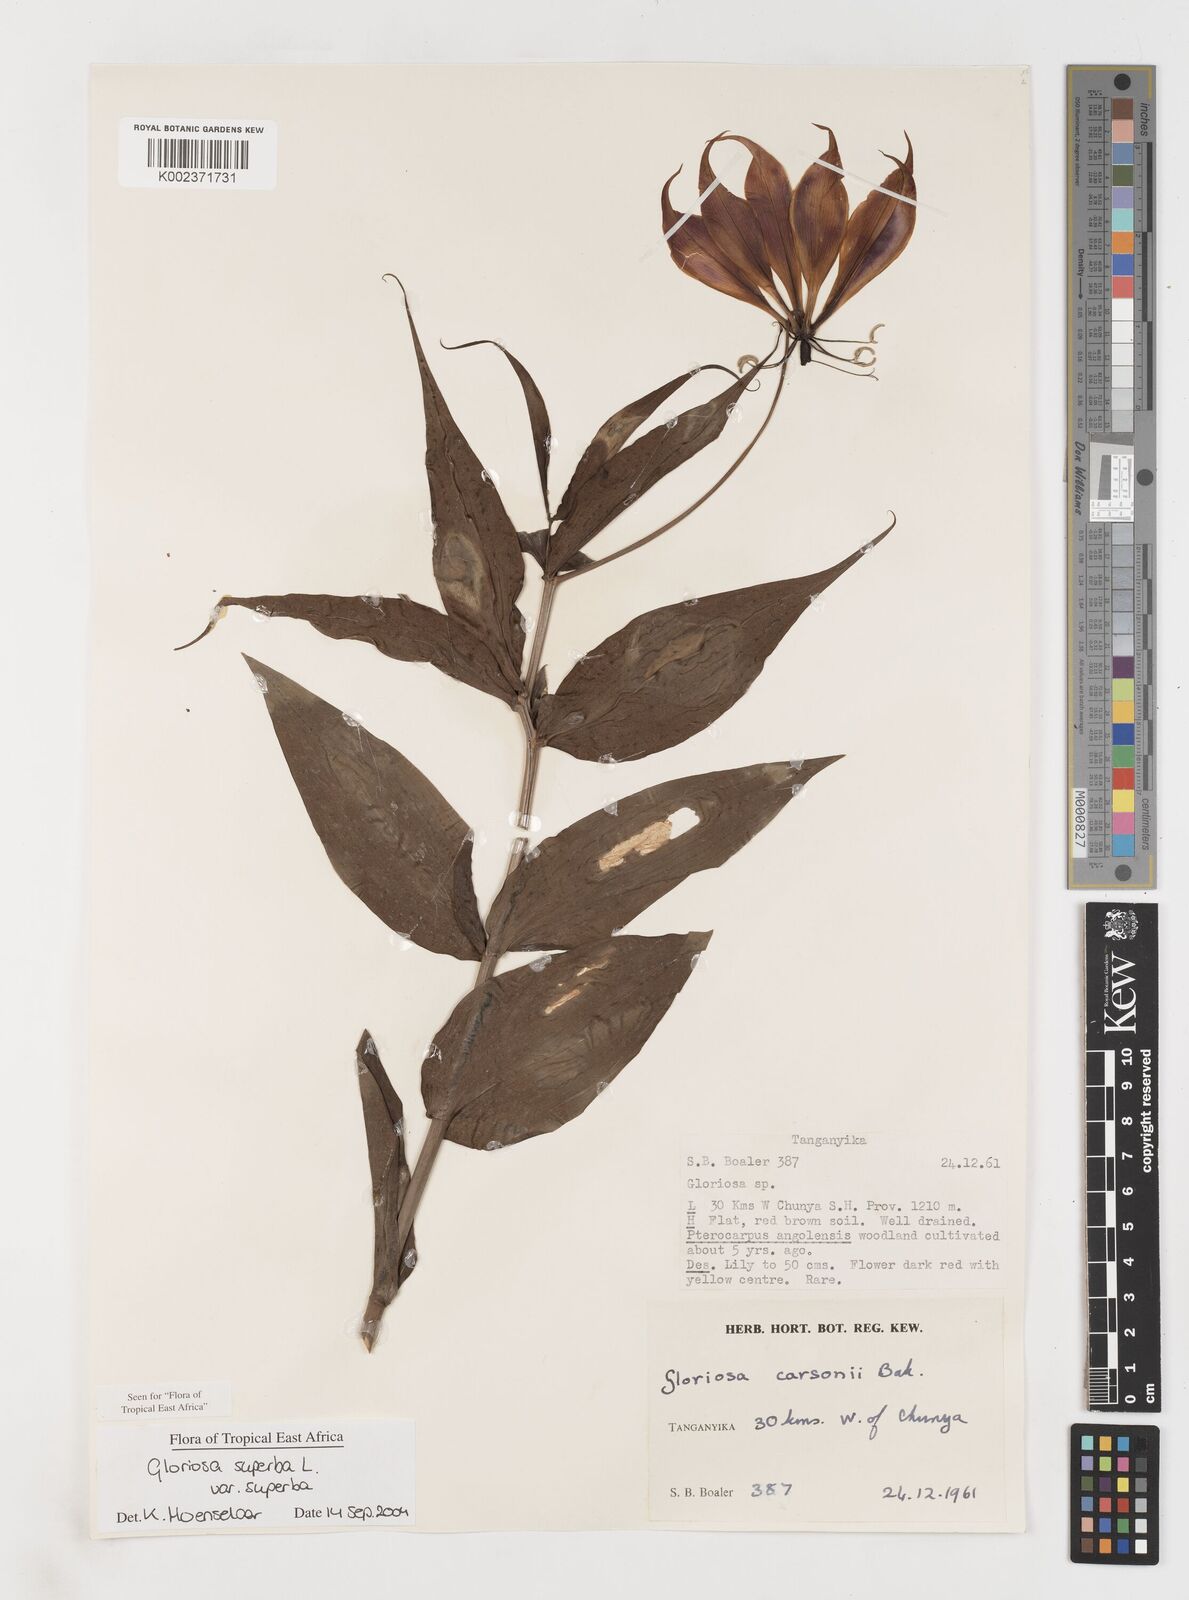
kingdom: Plantae
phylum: Tracheophyta
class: Liliopsida
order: Liliales
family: Colchicaceae
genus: Gloriosa
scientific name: Gloriosa simplex
